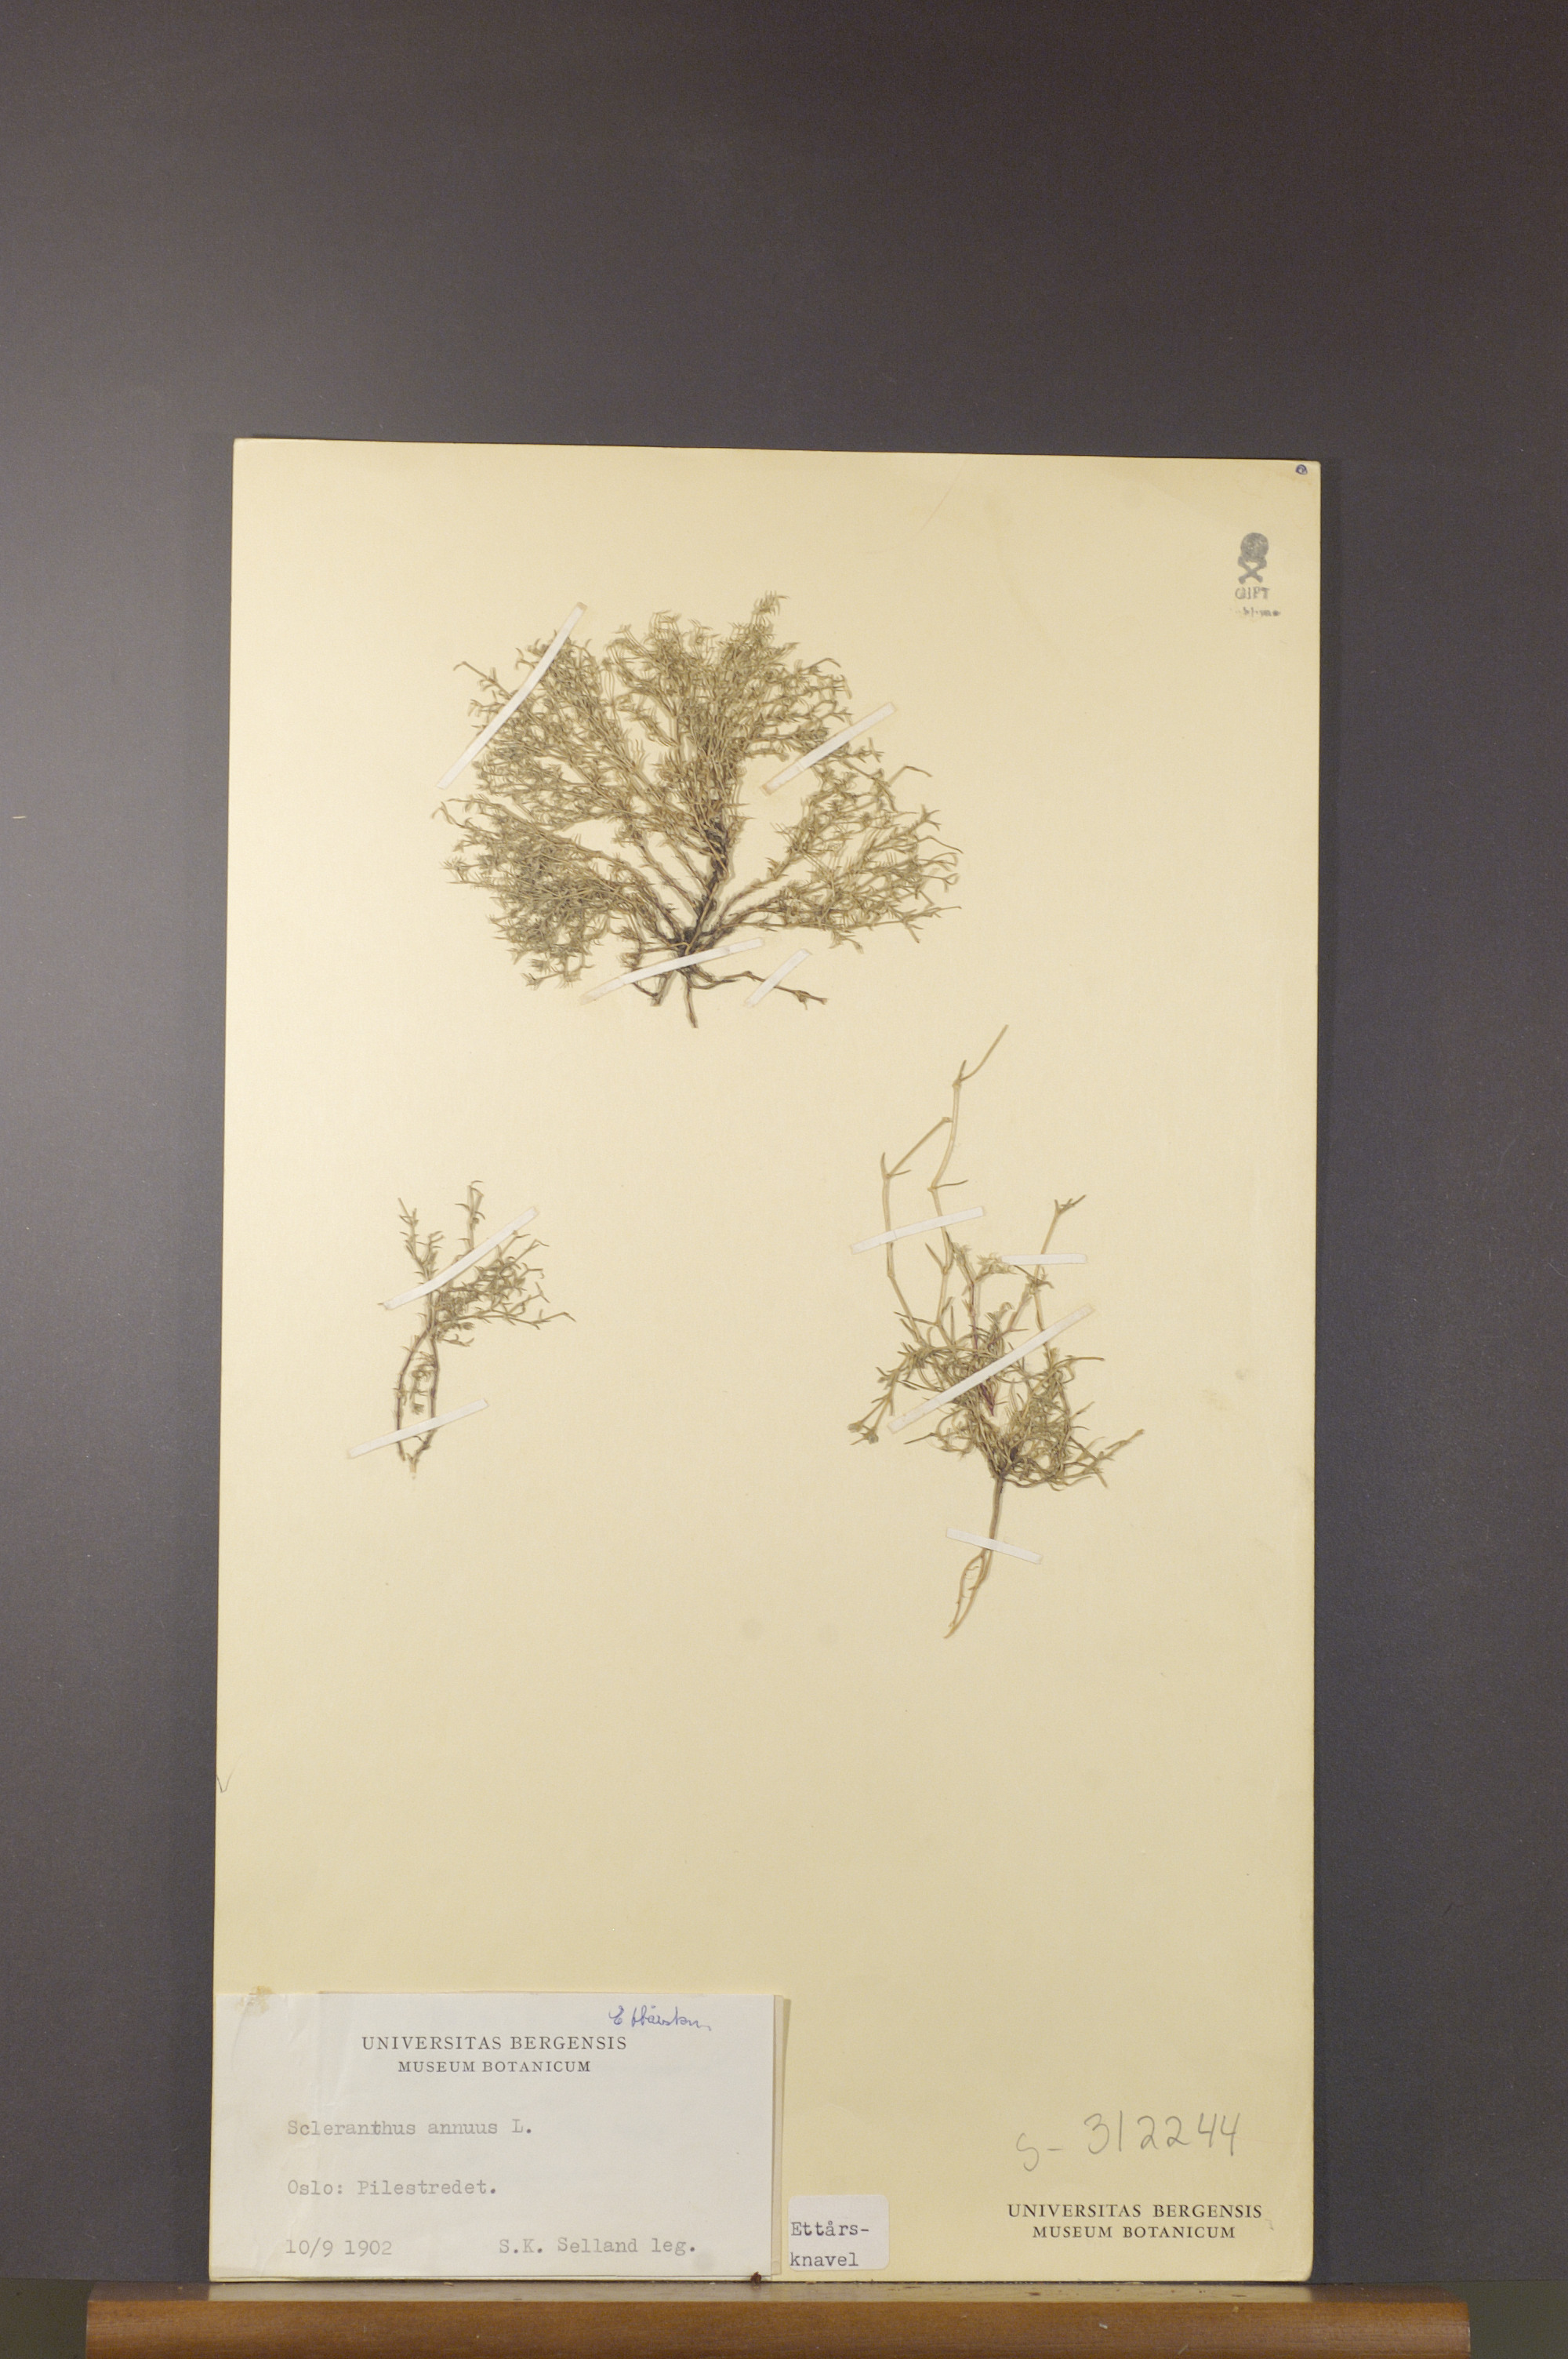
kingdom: Plantae
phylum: Tracheophyta
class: Magnoliopsida
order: Caryophyllales
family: Caryophyllaceae
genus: Scleranthus
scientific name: Scleranthus annuus
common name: Annual knawel
